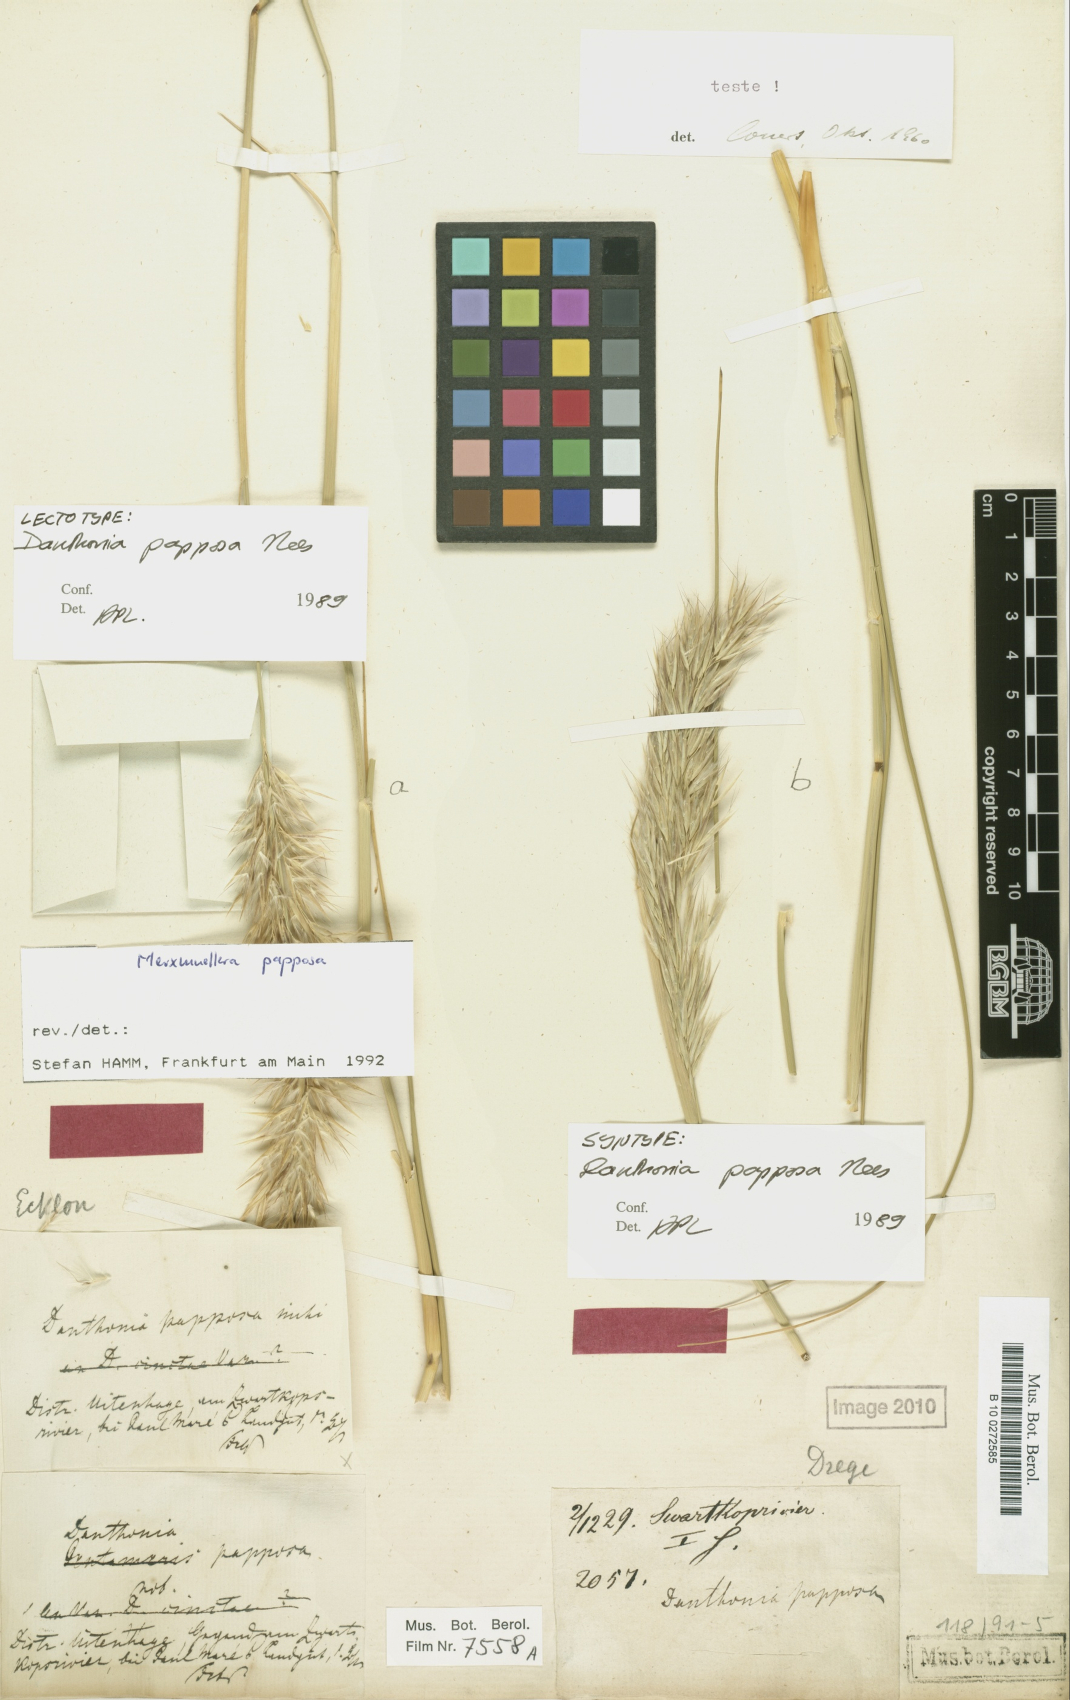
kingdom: Plantae
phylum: Tracheophyta
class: Liliopsida
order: Poales
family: Poaceae
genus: Ellisochloa
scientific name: Ellisochloa papposa
